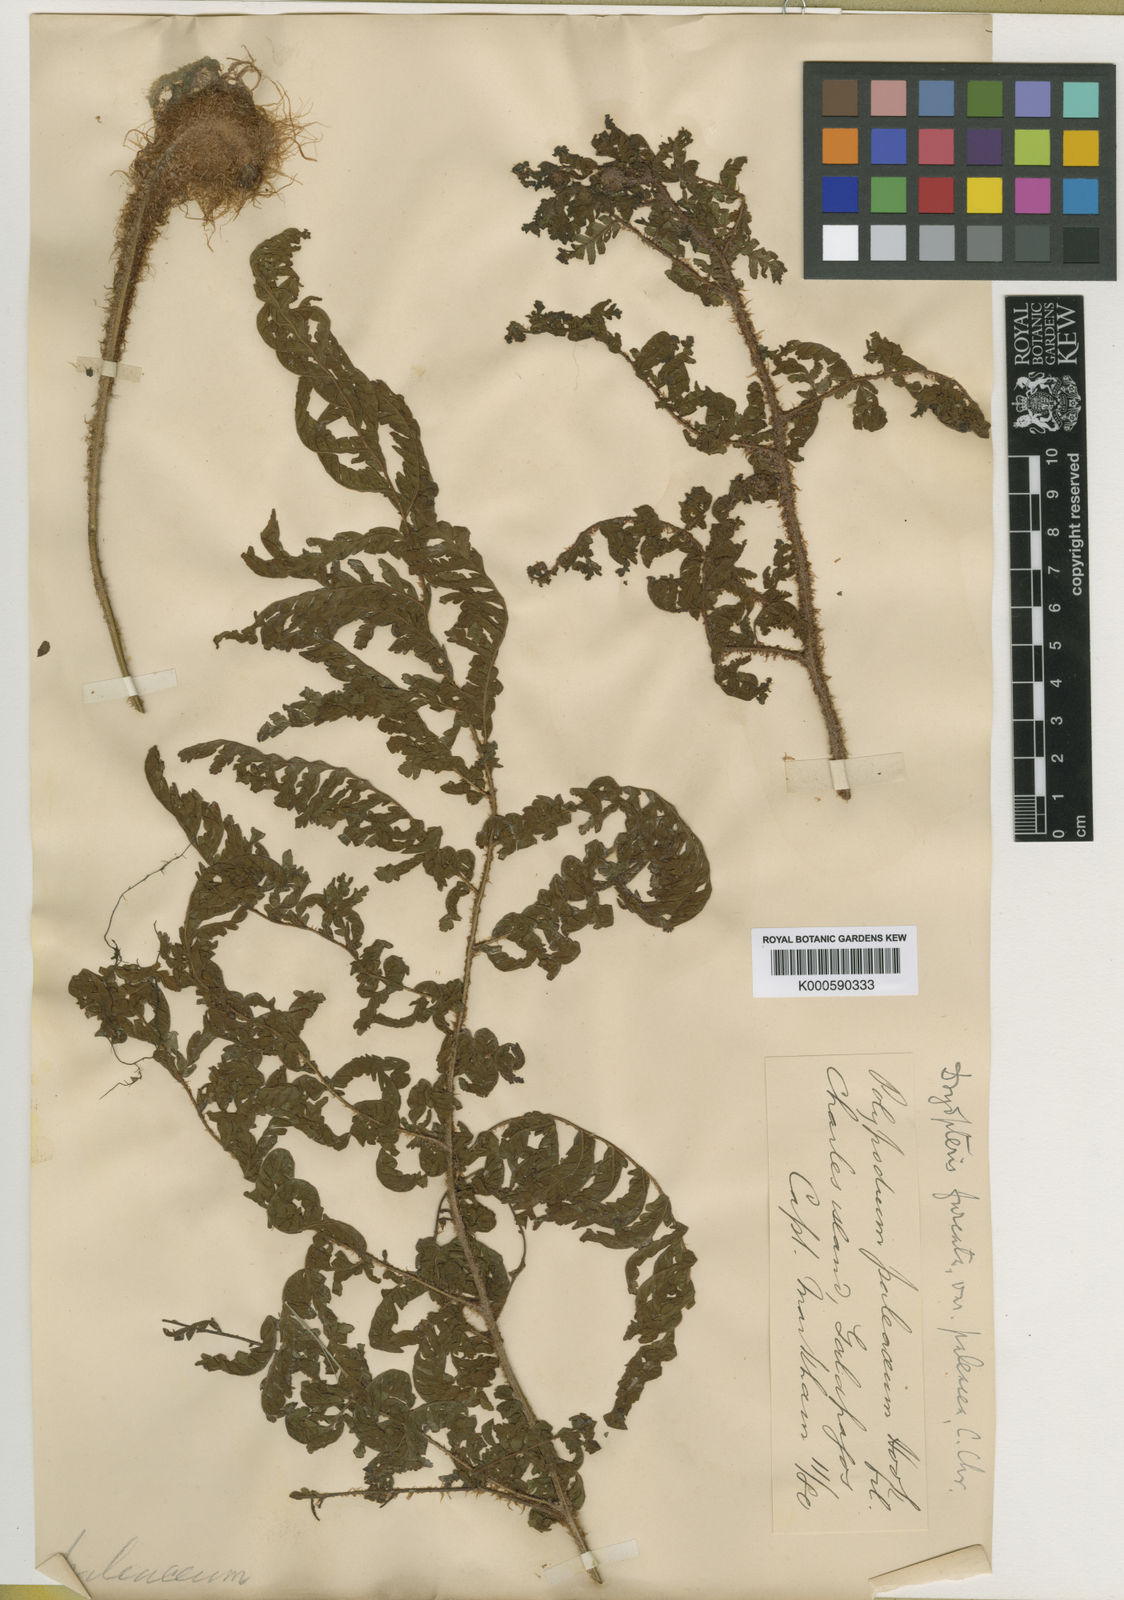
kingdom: Plantae
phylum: Tracheophyta
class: Polypodiopsida
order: Polypodiales
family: Dryopteridaceae
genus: Ctenitis
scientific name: Ctenitis sloanei
